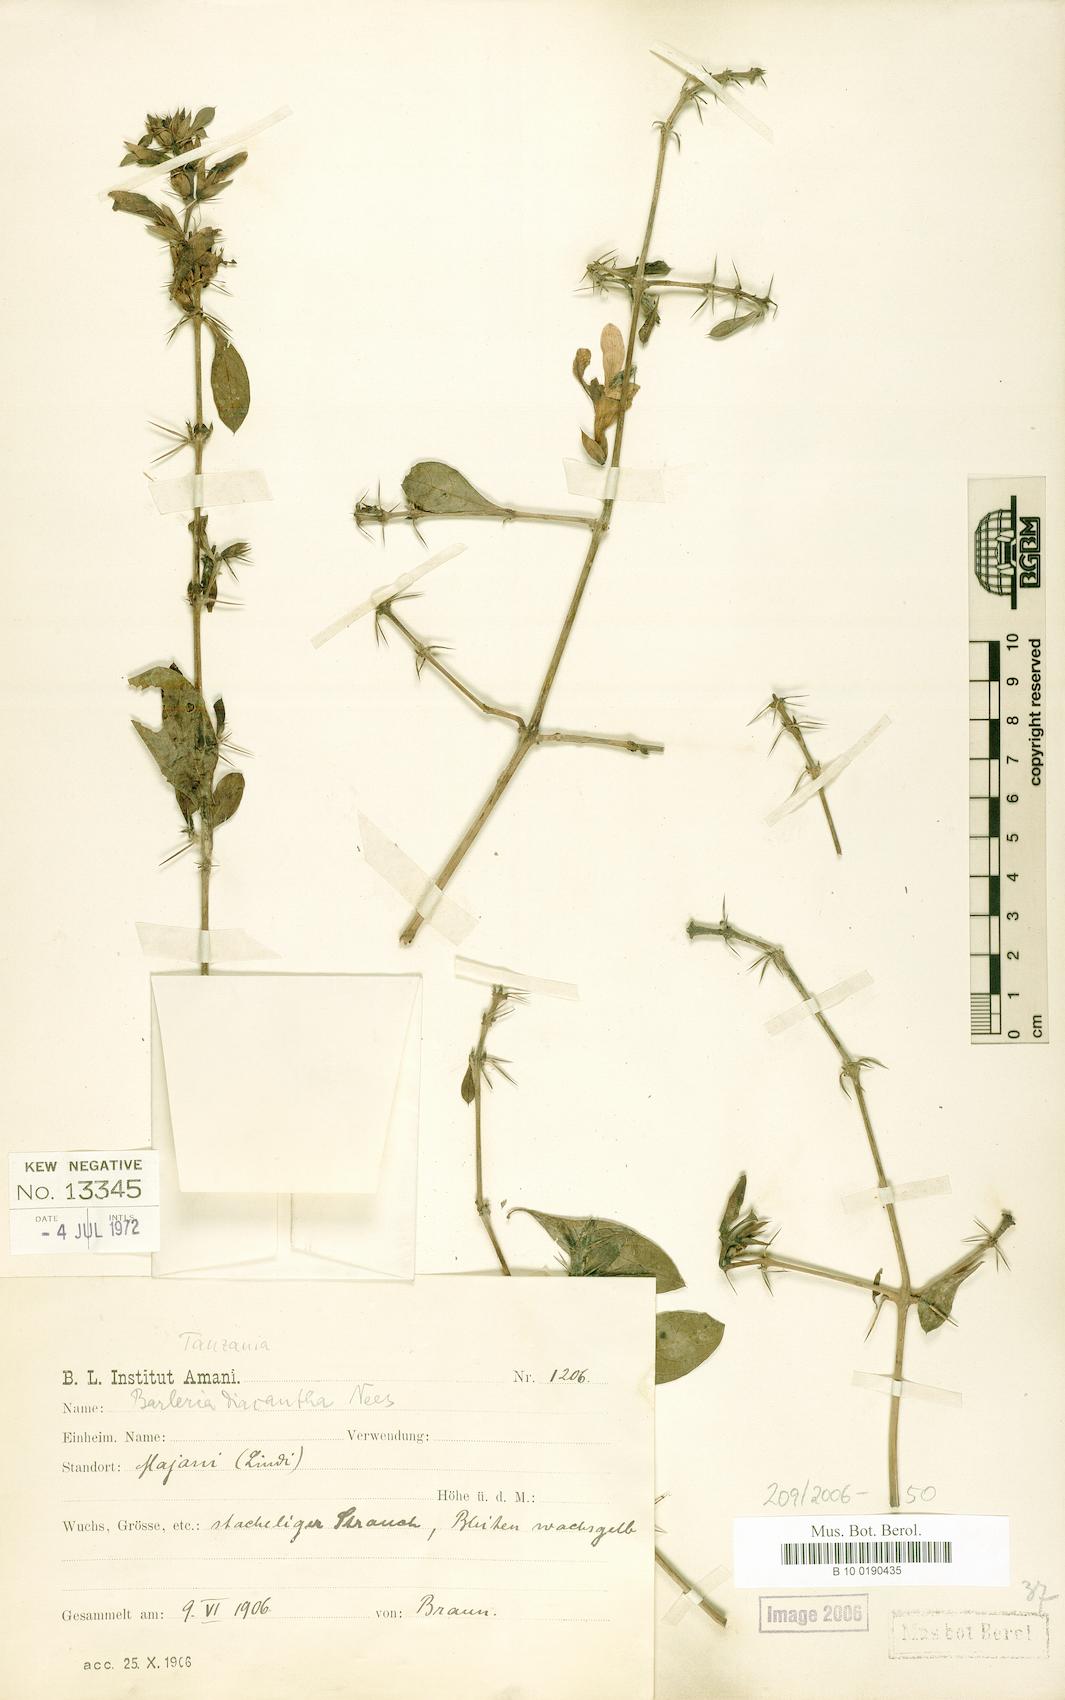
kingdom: Plantae
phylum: Tracheophyta
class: Magnoliopsida
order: Lamiales
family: Acanthaceae
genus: Barleria
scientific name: Barleria trispinosa
